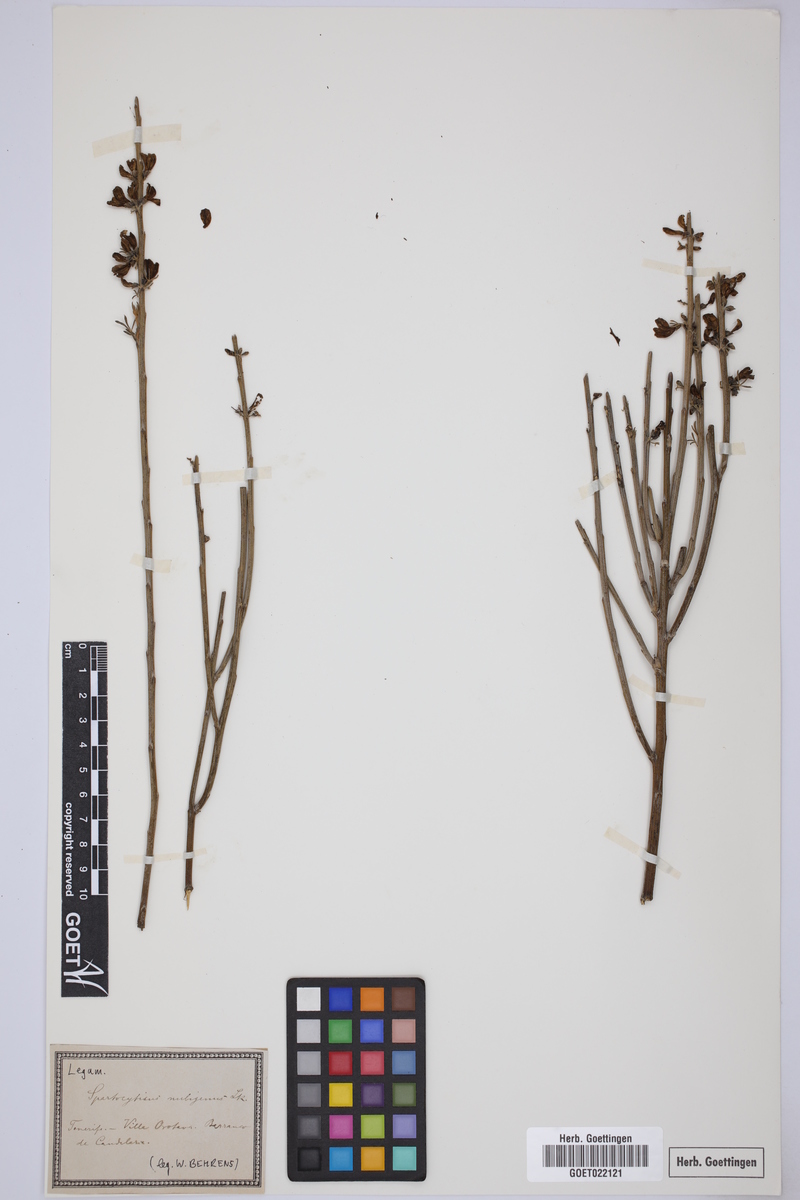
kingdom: Plantae
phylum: Tracheophyta
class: Magnoliopsida
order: Fabales
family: Fabaceae
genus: Cytisus
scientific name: Cytisus supranubius
